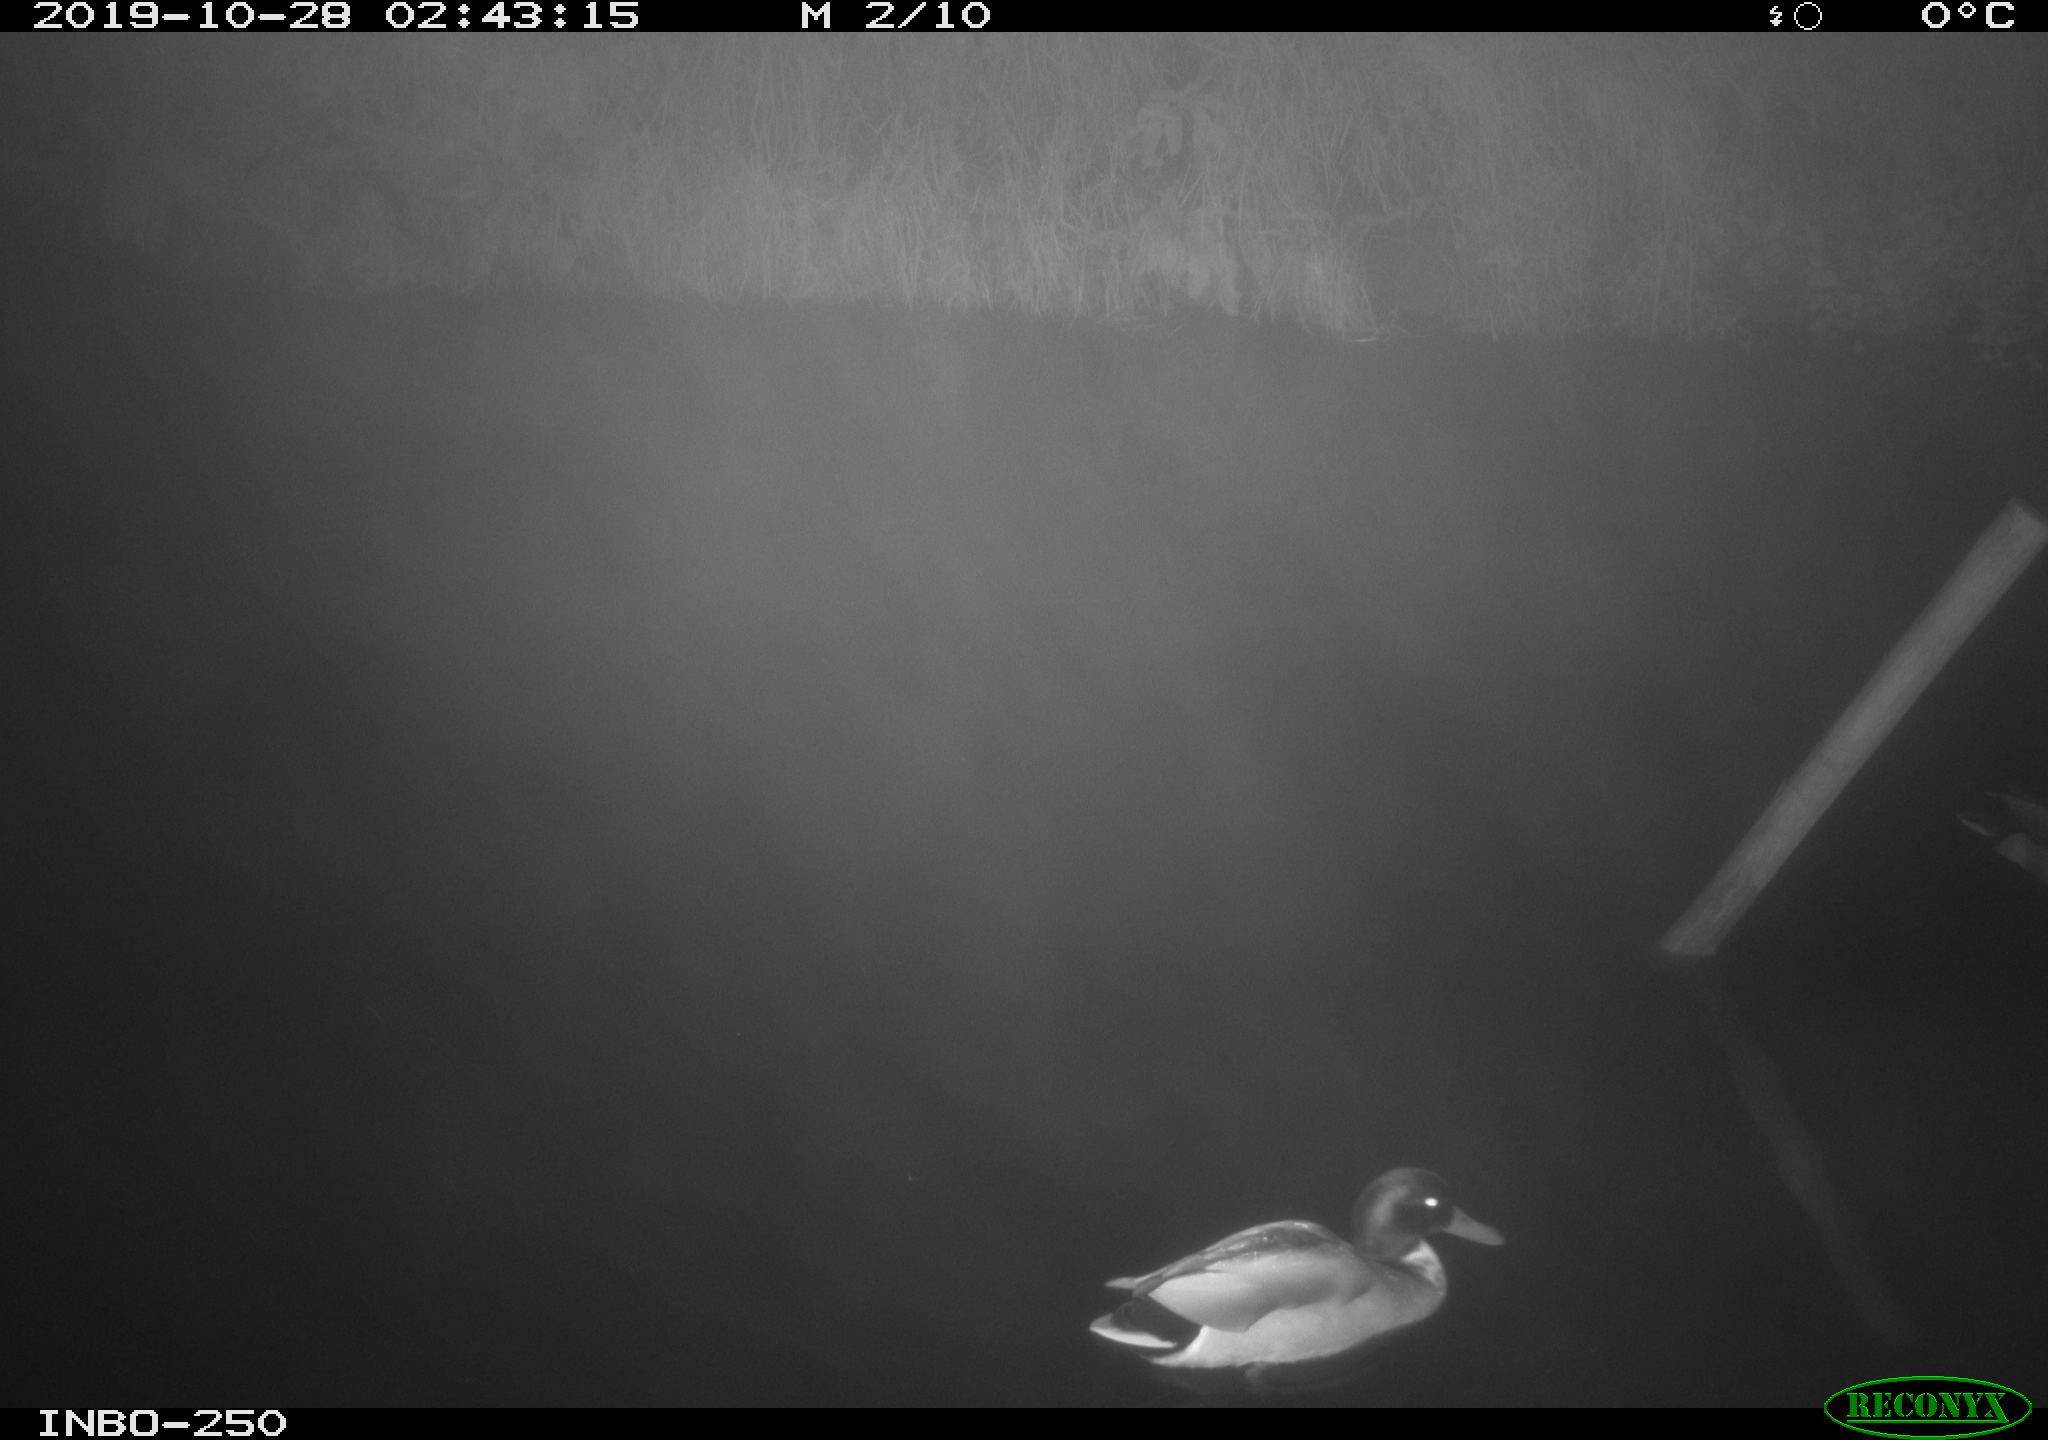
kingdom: Animalia
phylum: Chordata
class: Aves
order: Anseriformes
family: Anatidae
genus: Anas
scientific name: Anas platyrhynchos
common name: Mallard
